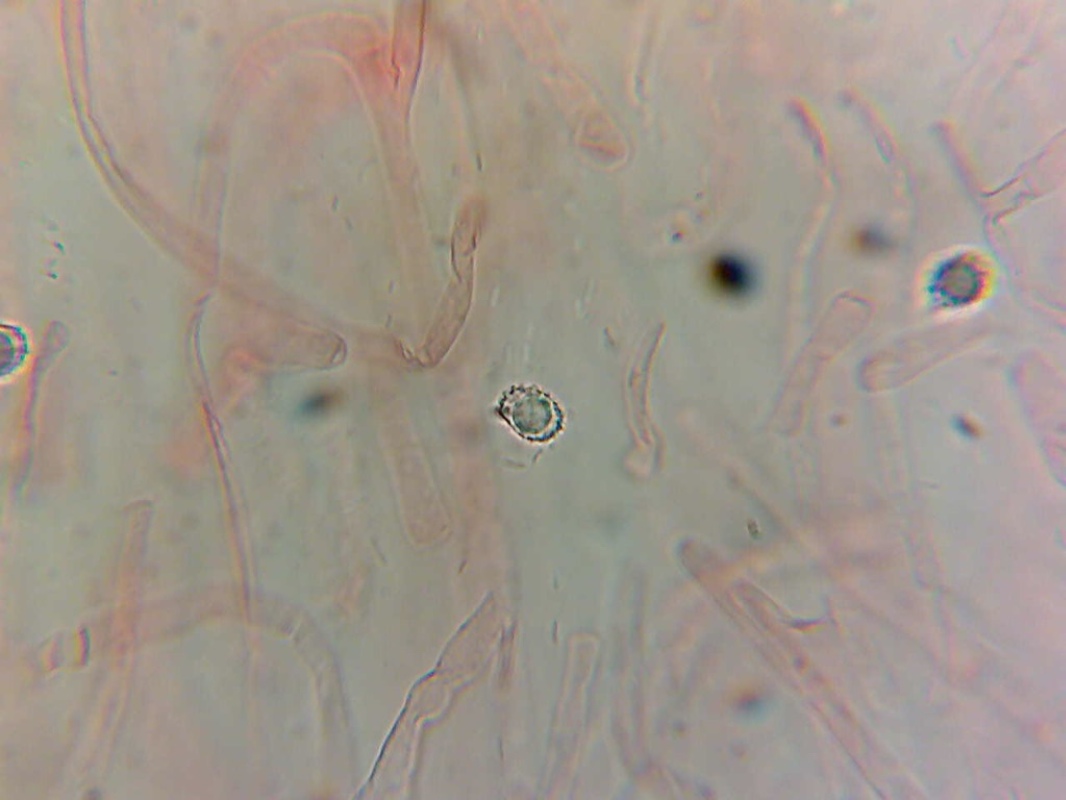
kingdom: Fungi
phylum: Basidiomycota
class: Agaricomycetes
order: Russulales
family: Russulaceae
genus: Russula
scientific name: Russula amoenolens
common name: skarp kam-skørhat
